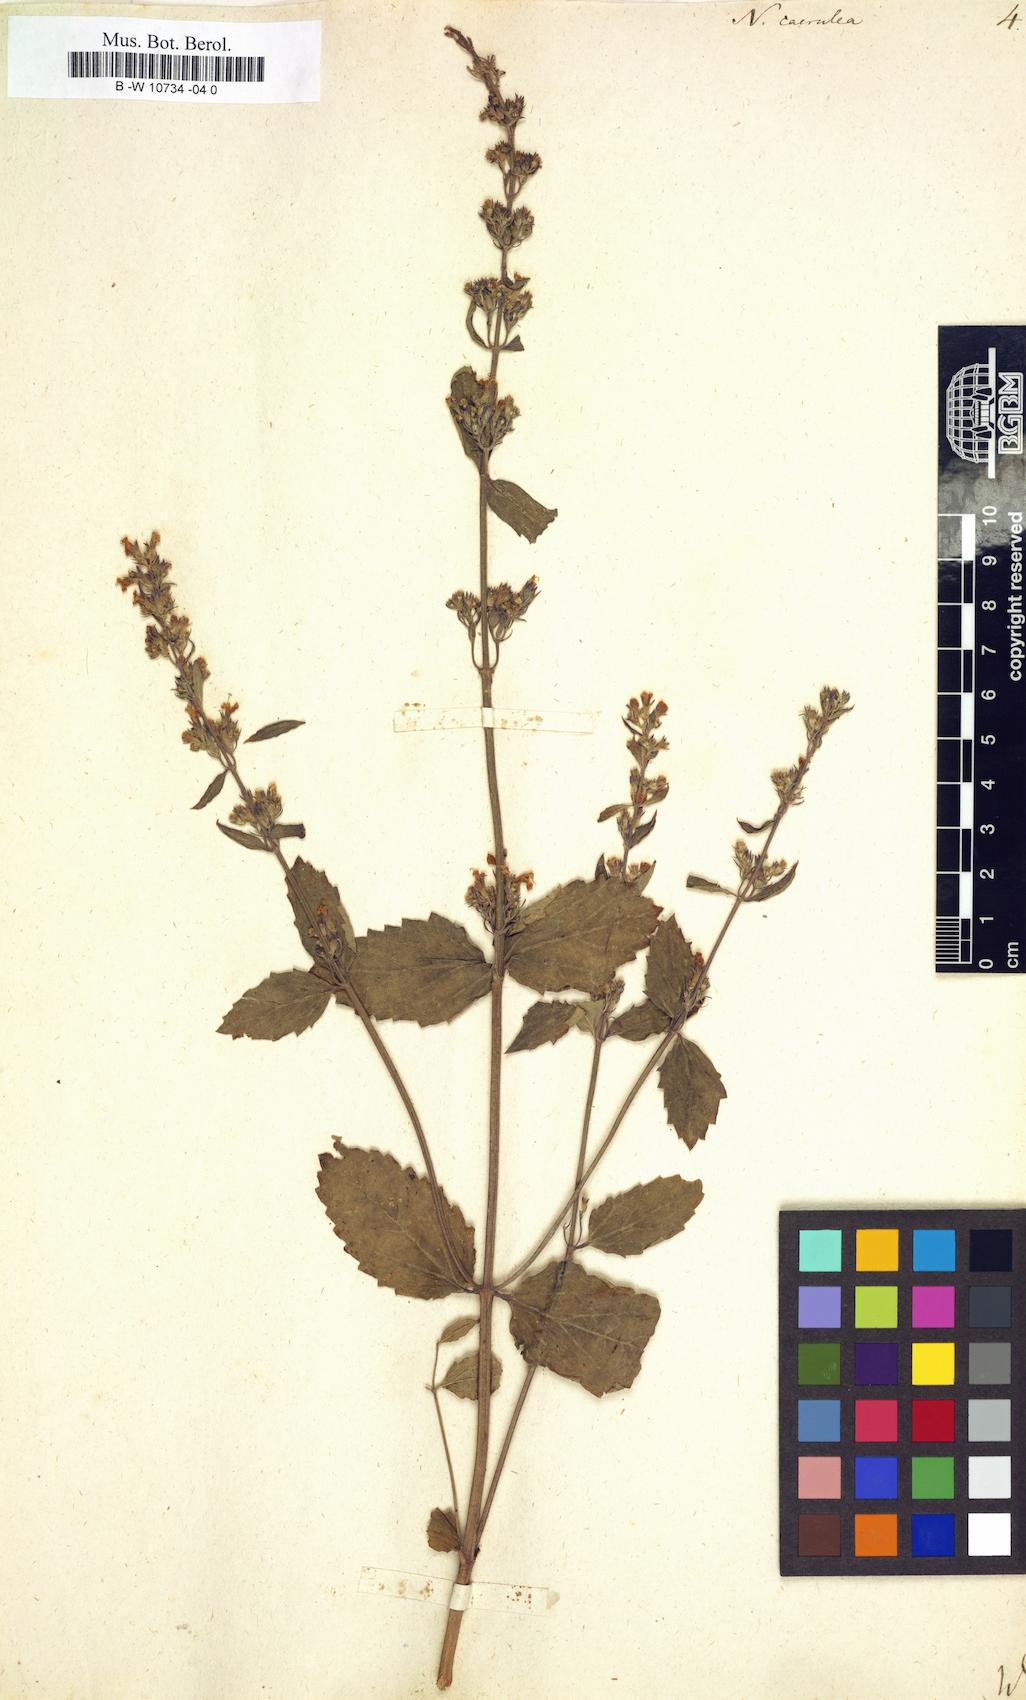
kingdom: Plantae
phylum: Tracheophyta
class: Magnoliopsida
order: Lamiales
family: Lamiaceae
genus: Nepeta
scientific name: Nepeta caerulea
